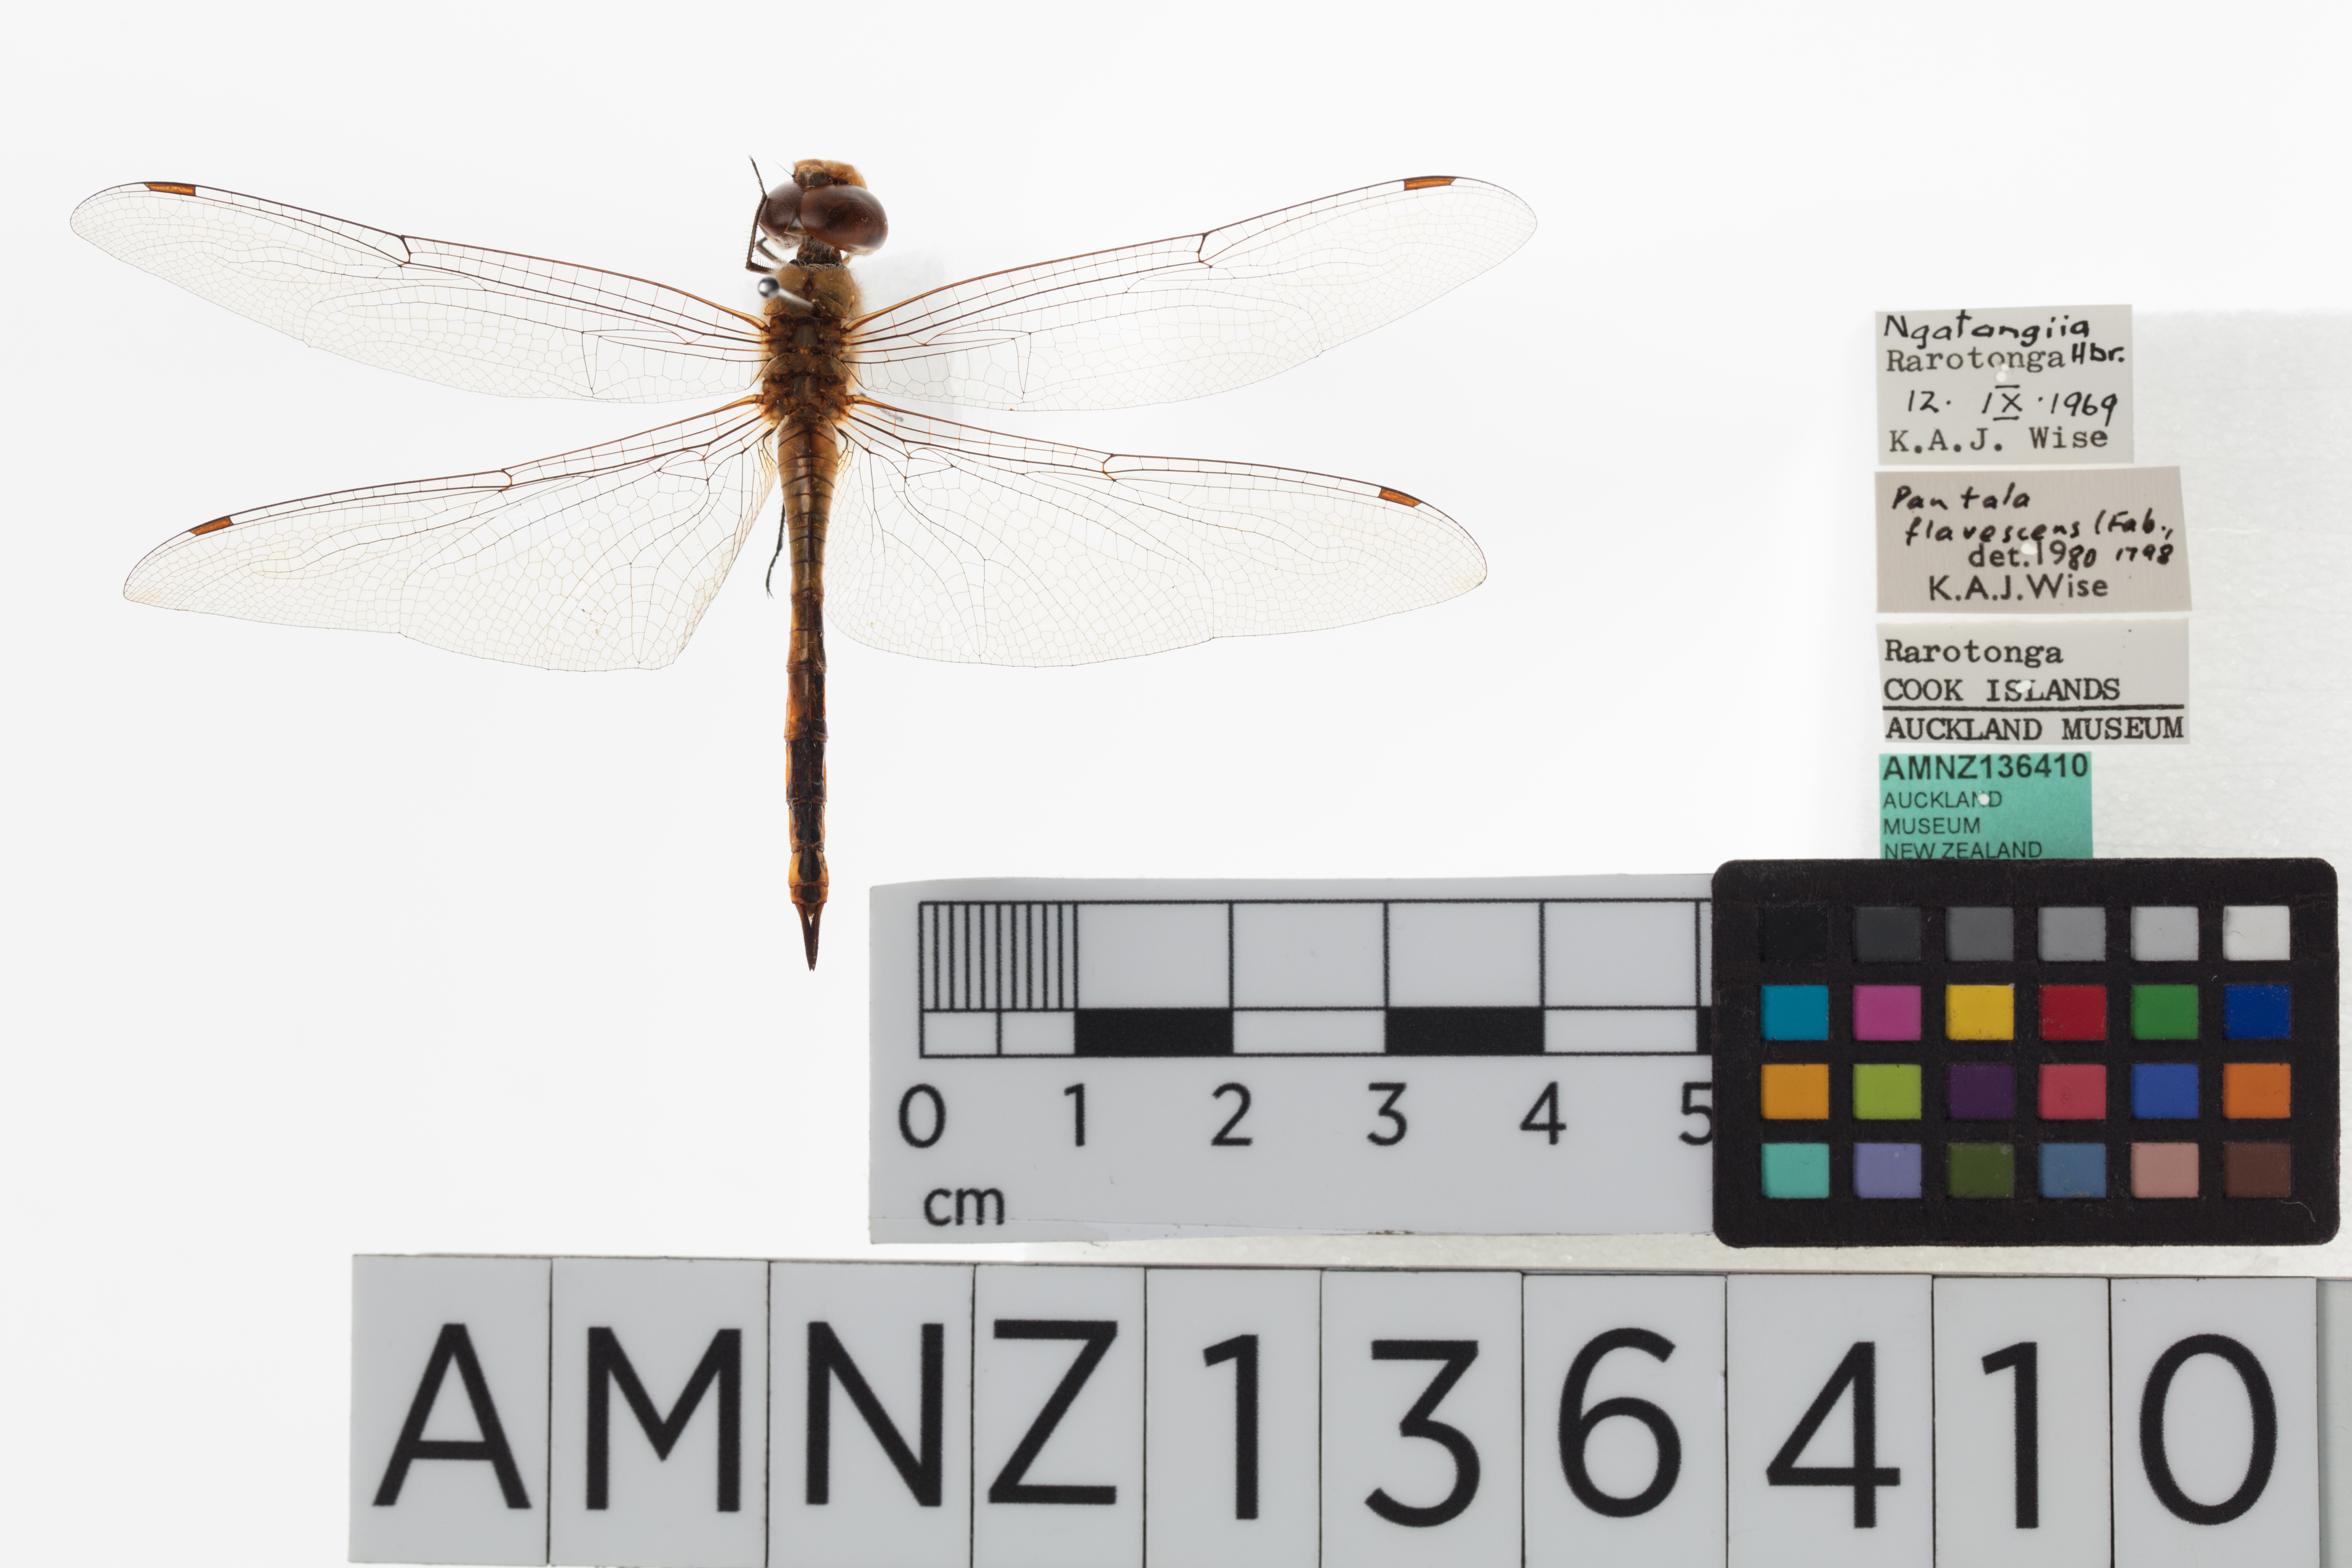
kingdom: Animalia
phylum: Arthropoda
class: Insecta
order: Odonata
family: Libellulidae
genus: Pantala
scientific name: Pantala flavescens
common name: Wandering glider
